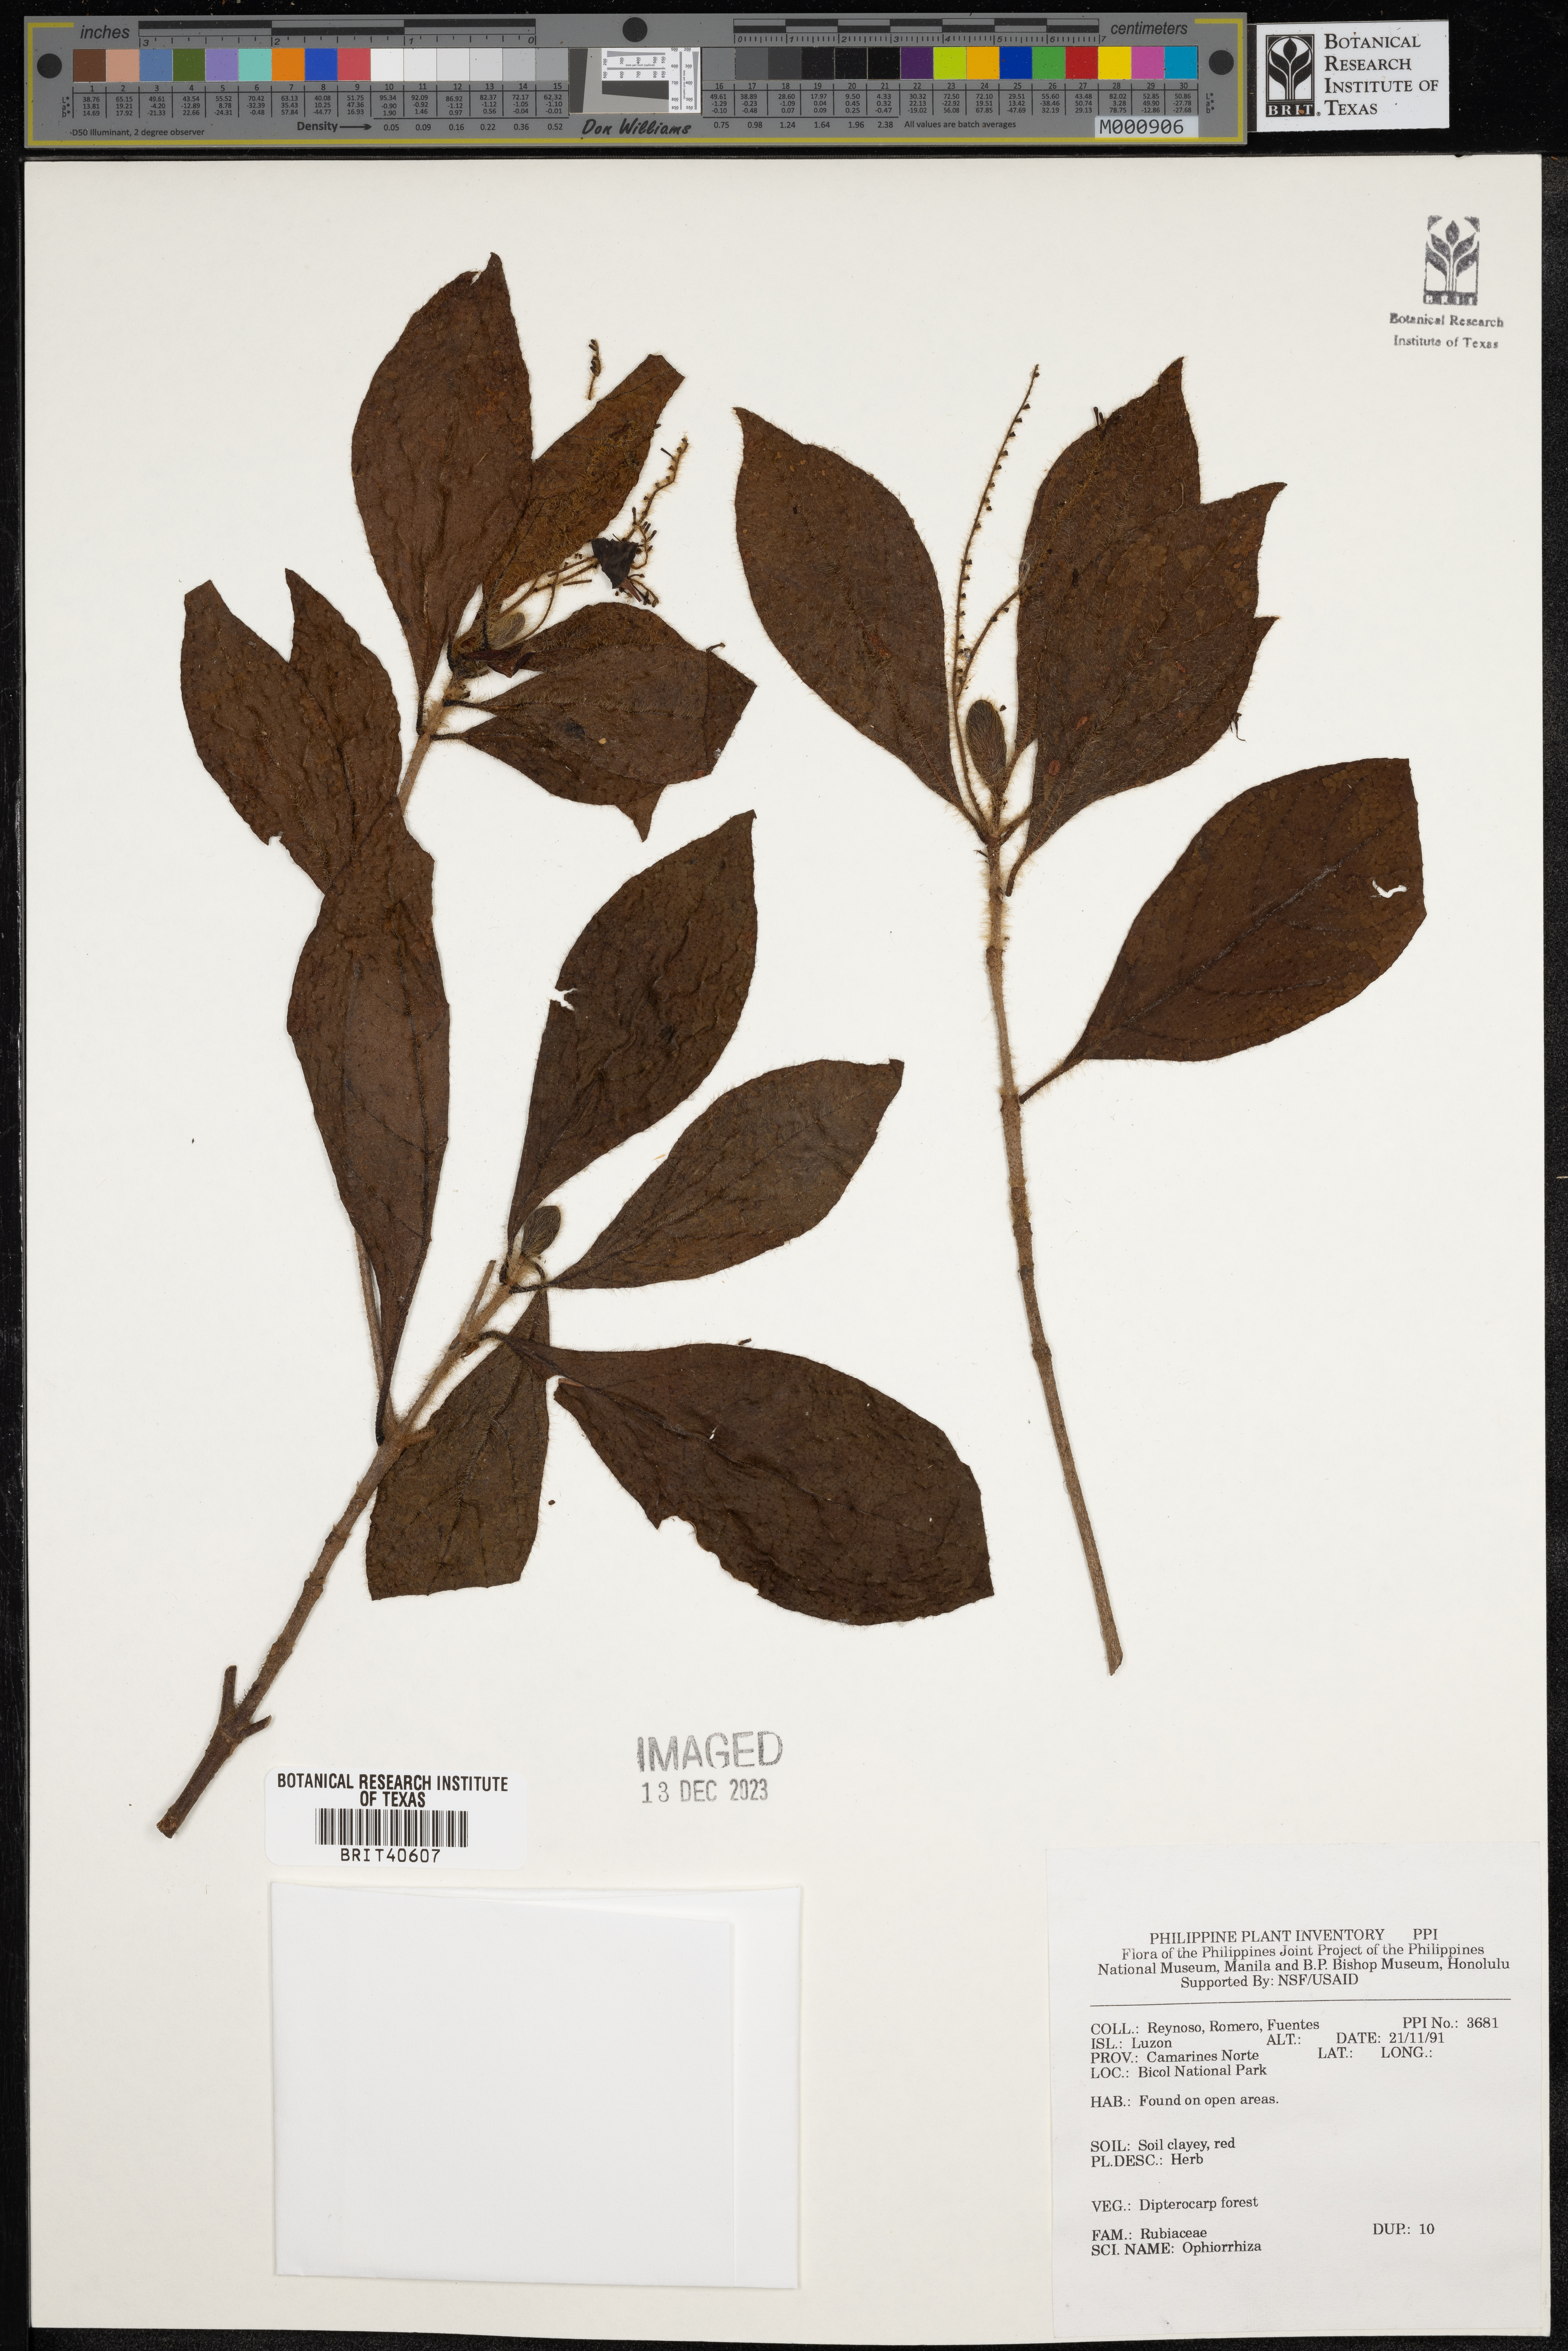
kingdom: Plantae
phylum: Tracheophyta
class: Magnoliopsida
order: Gentianales
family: Rubiaceae
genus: Ophiorrhiza
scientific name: Ophiorrhiza
